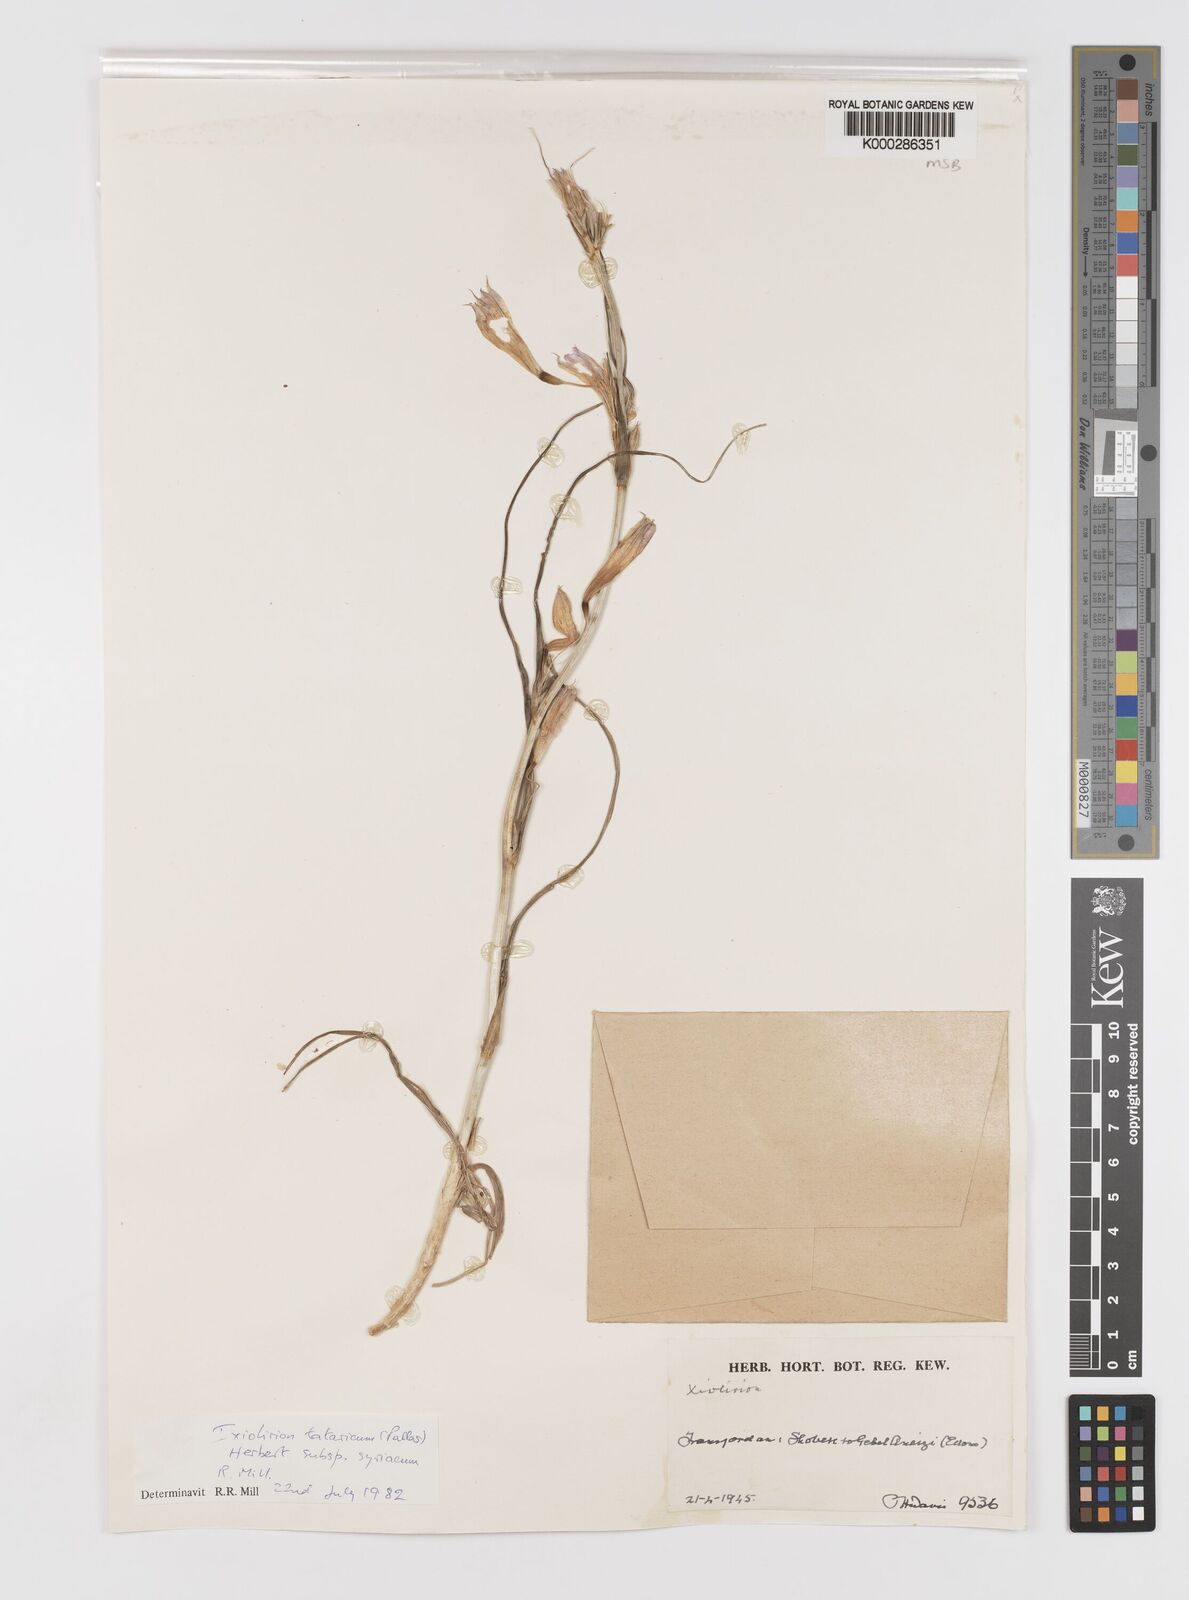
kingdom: Plantae
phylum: Tracheophyta
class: Liliopsida
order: Asparagales
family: Ixioliriaceae
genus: Ixiolirion
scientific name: Ixiolirion tataricum
